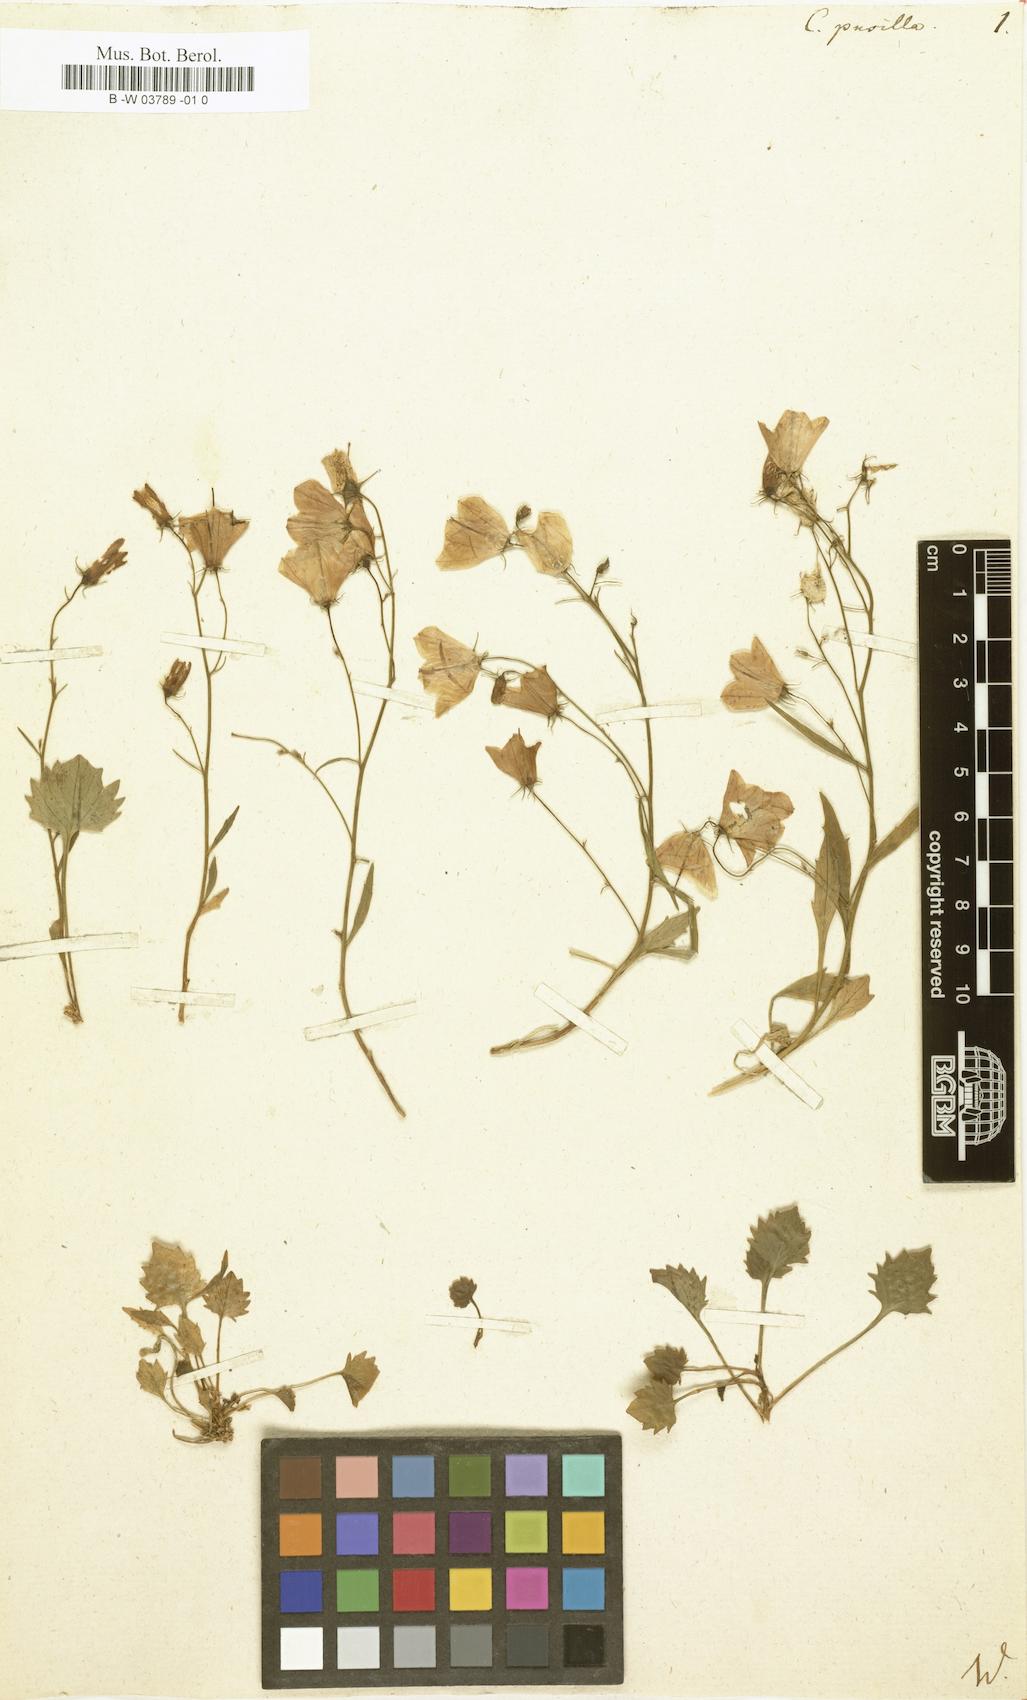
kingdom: Plantae
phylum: Tracheophyta
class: Magnoliopsida
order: Asterales
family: Campanulaceae
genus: Campanula
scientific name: Campanula cochleariifolia
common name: Fairies'-thimbles
